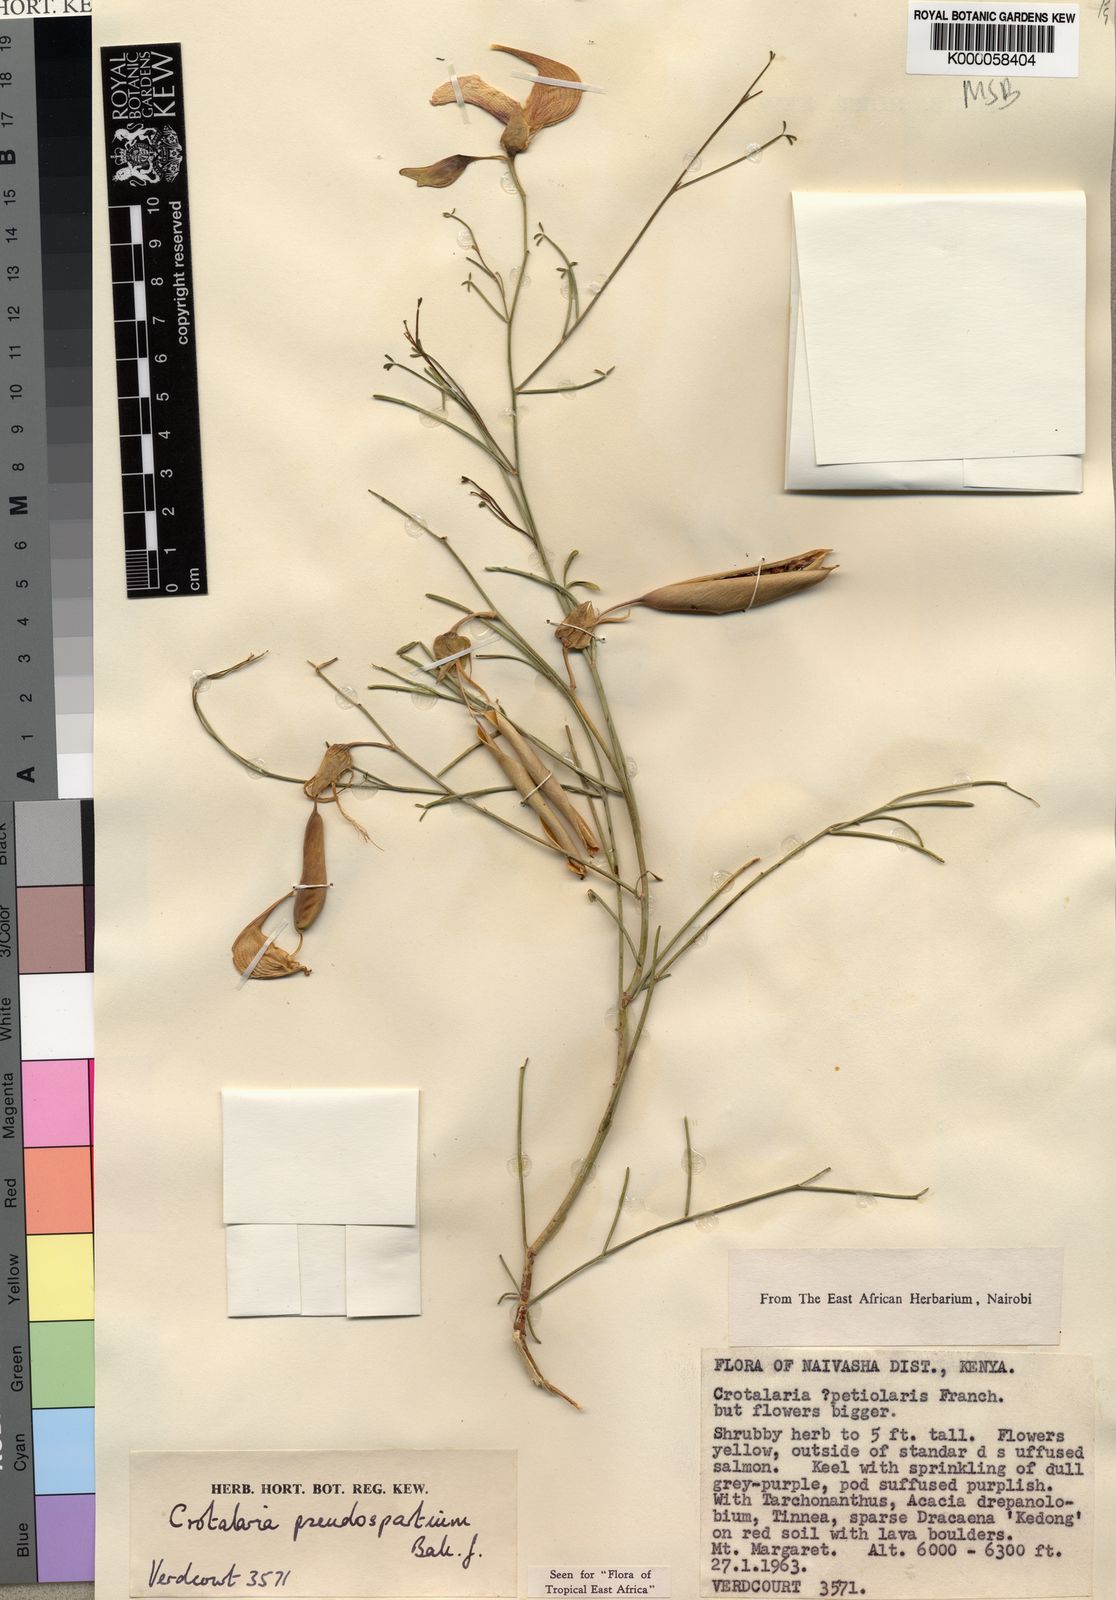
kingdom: Plantae
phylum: Tracheophyta
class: Magnoliopsida
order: Fabales
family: Fabaceae
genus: Crotalaria
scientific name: Crotalaria pseudospartium
